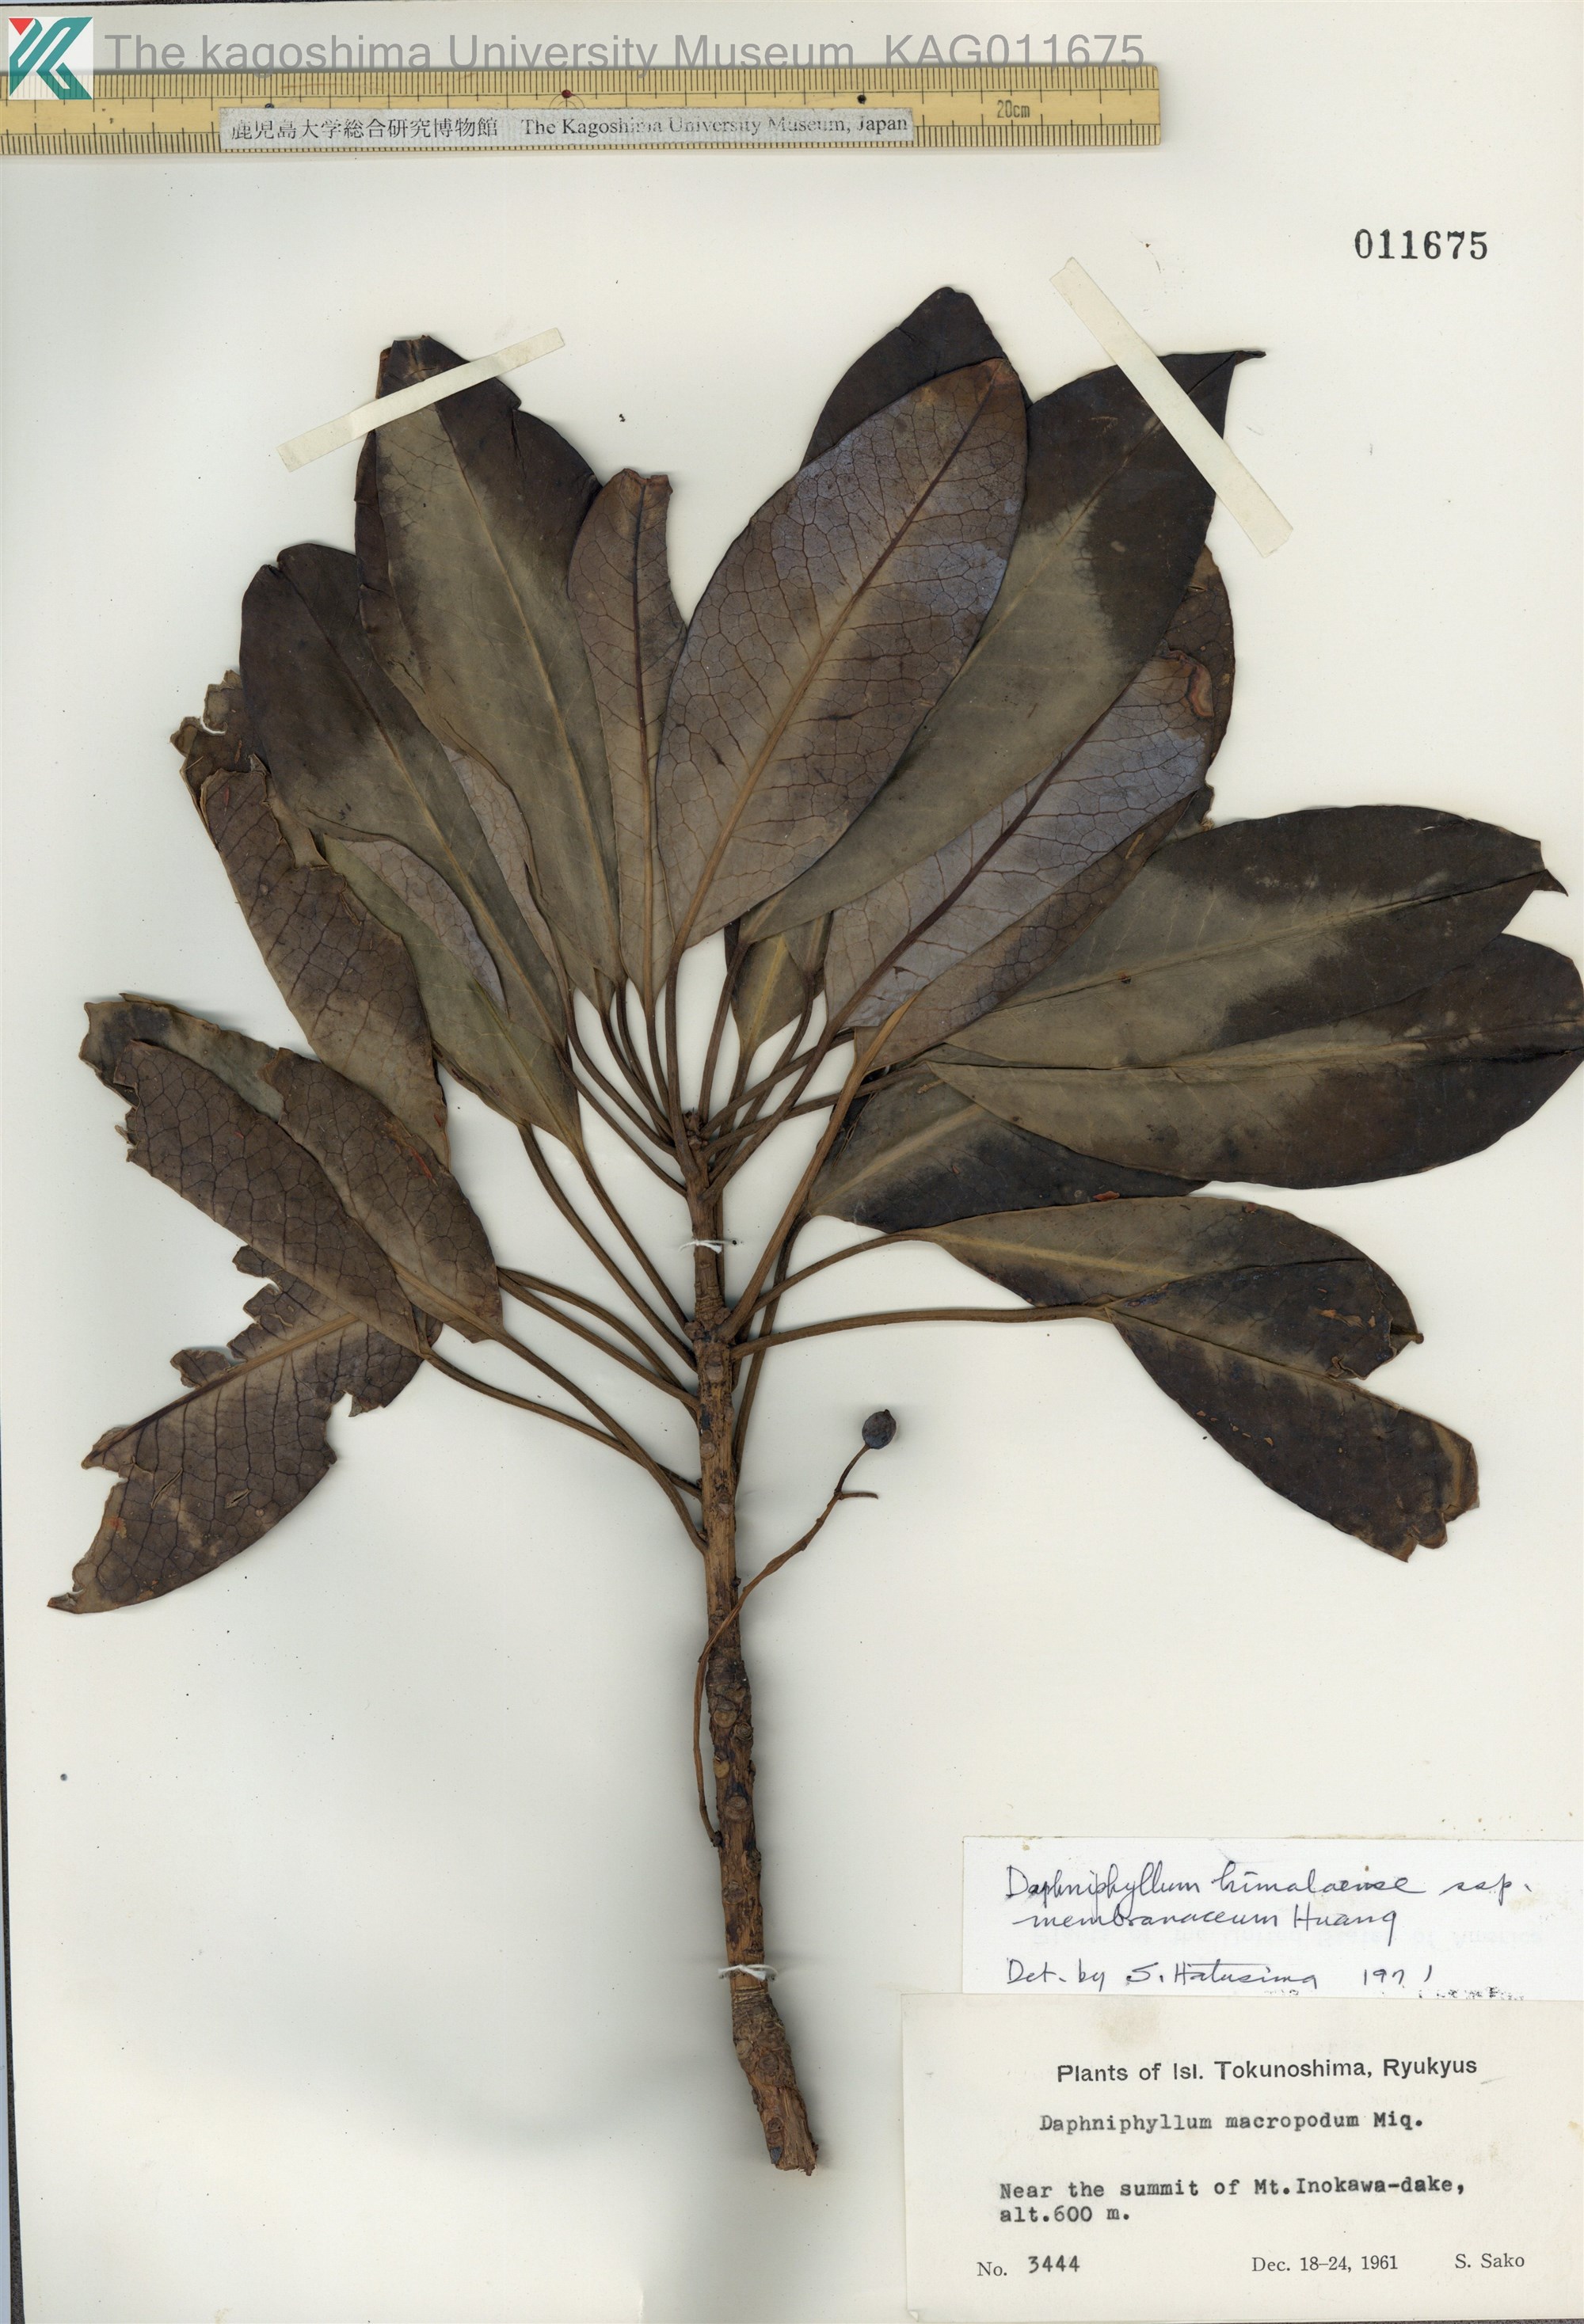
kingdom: Plantae
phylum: Tracheophyta
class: Magnoliopsida
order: Saxifragales
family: Daphniphyllaceae
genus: Daphniphyllum
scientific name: Daphniphyllum macropodum
